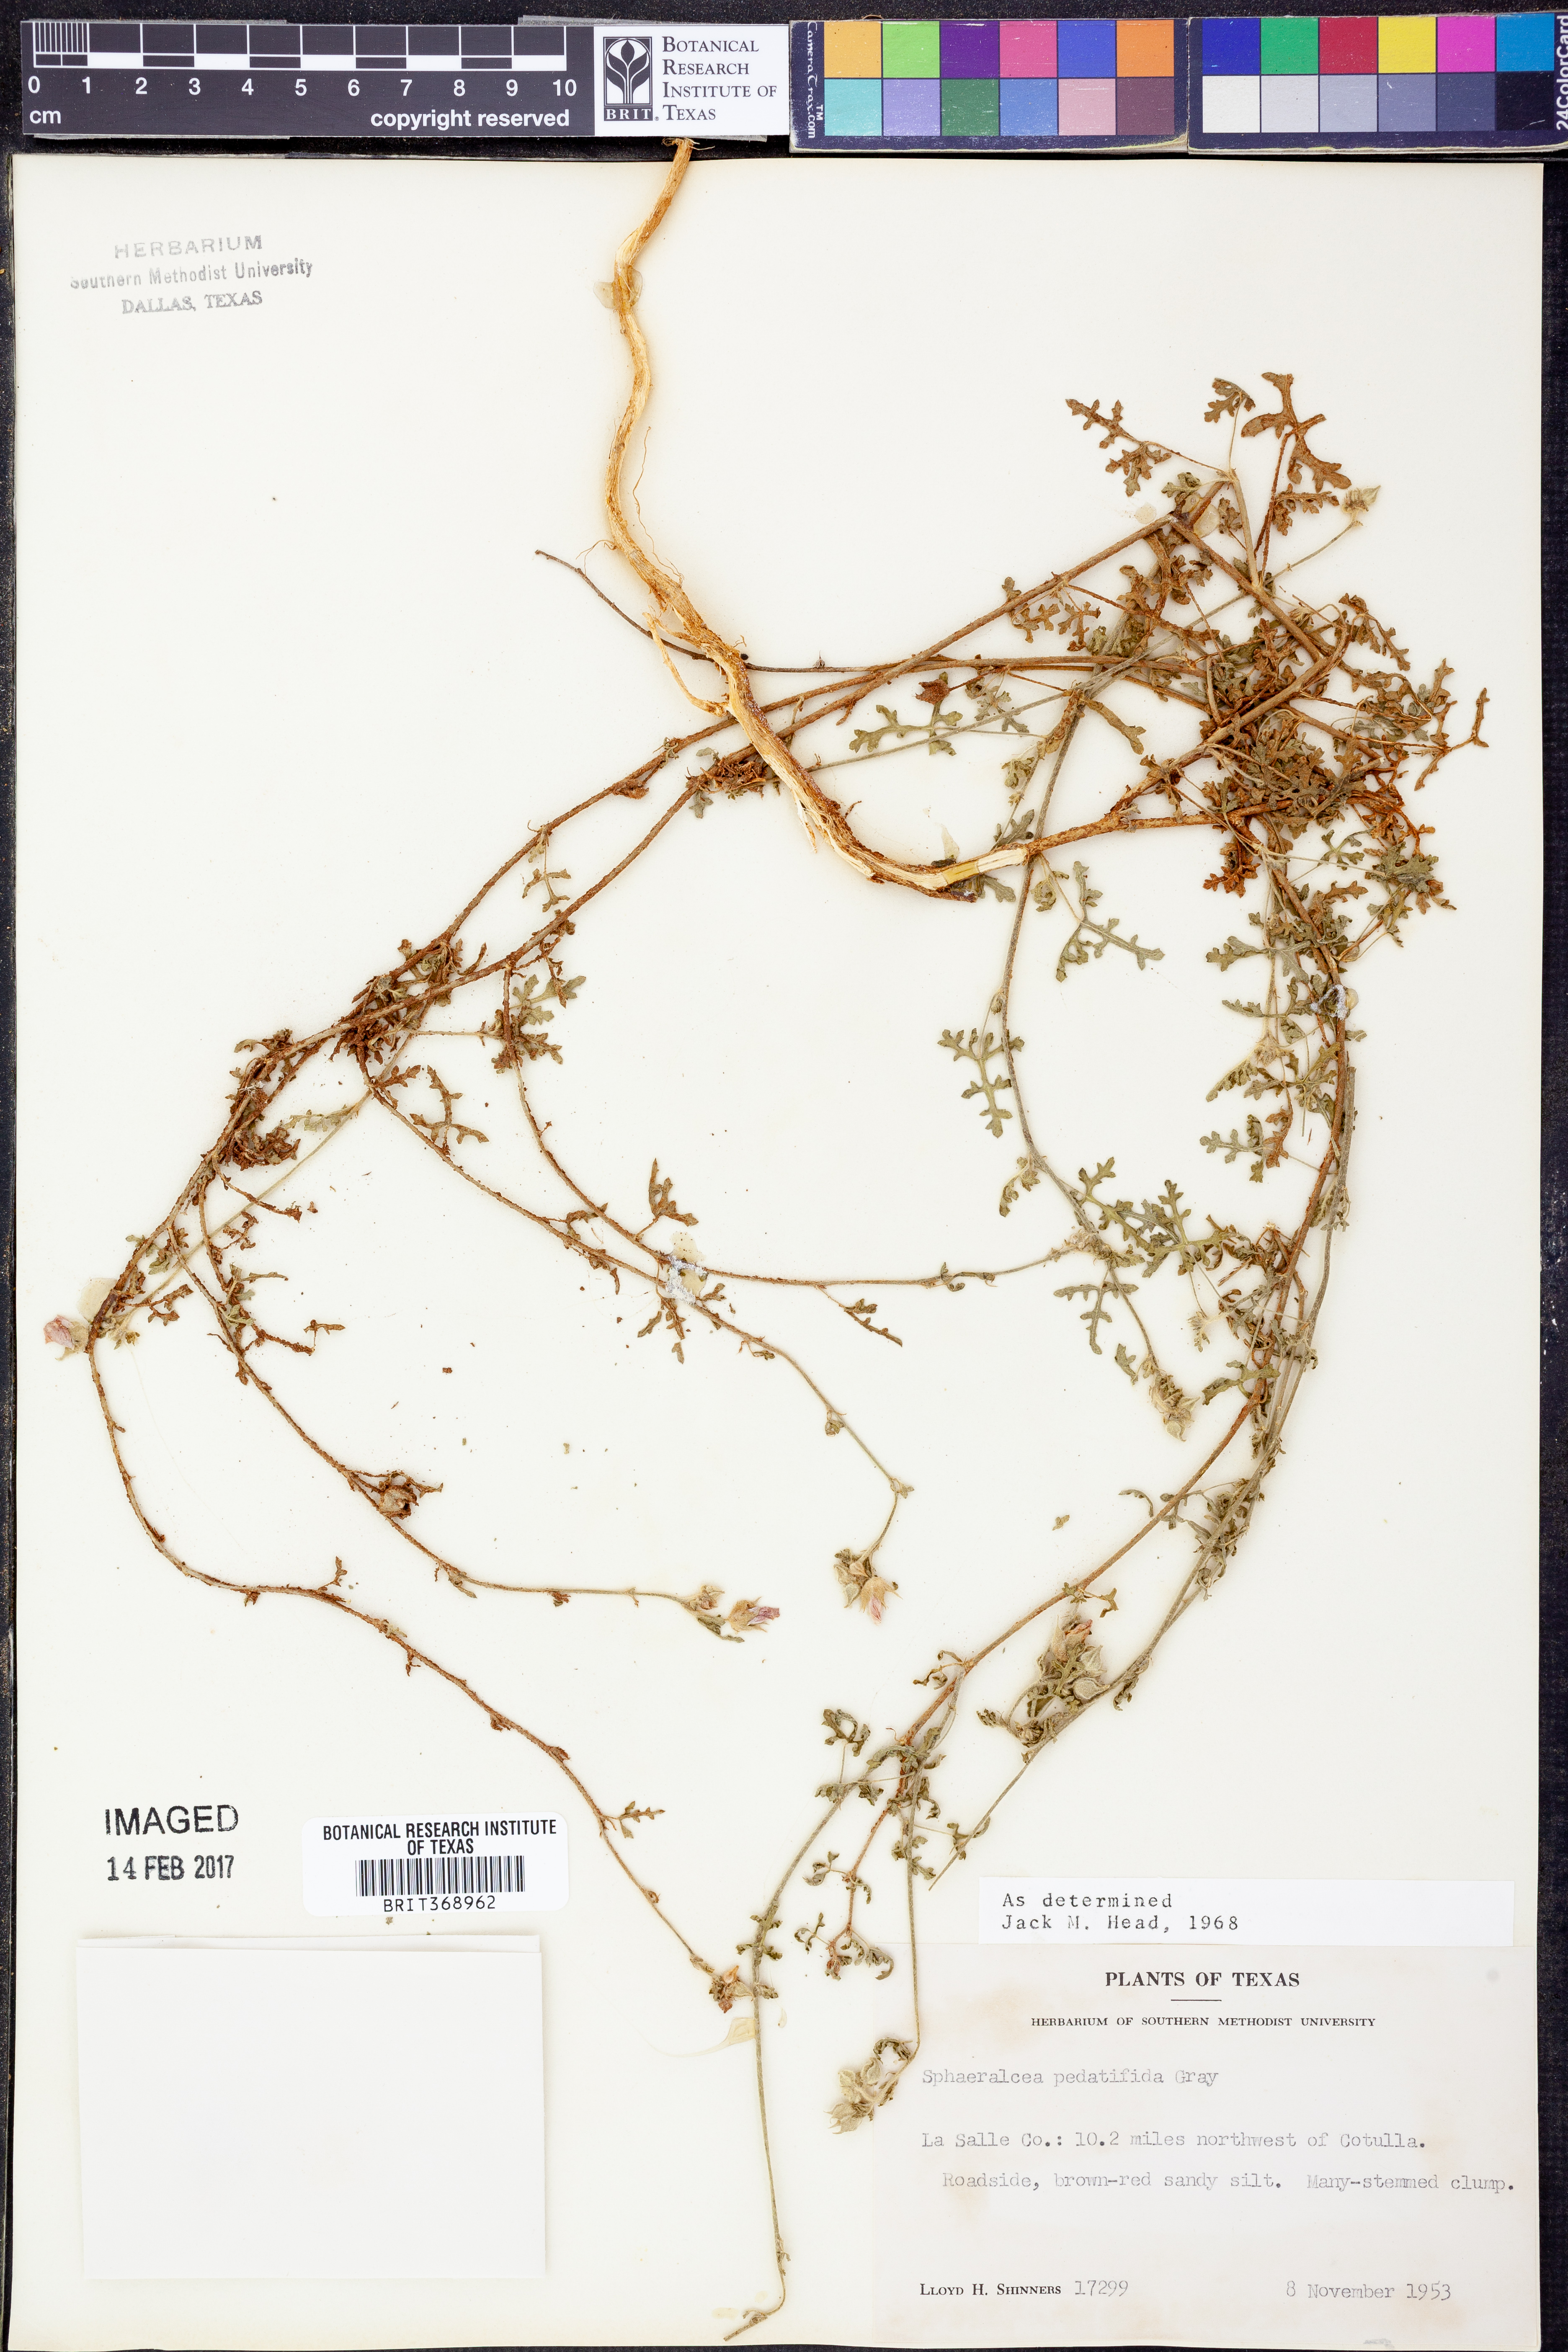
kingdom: Plantae
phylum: Tracheophyta
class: Magnoliopsida
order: Malvales
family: Malvaceae
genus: Sphaeralcea
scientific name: Sphaeralcea pedatifida
